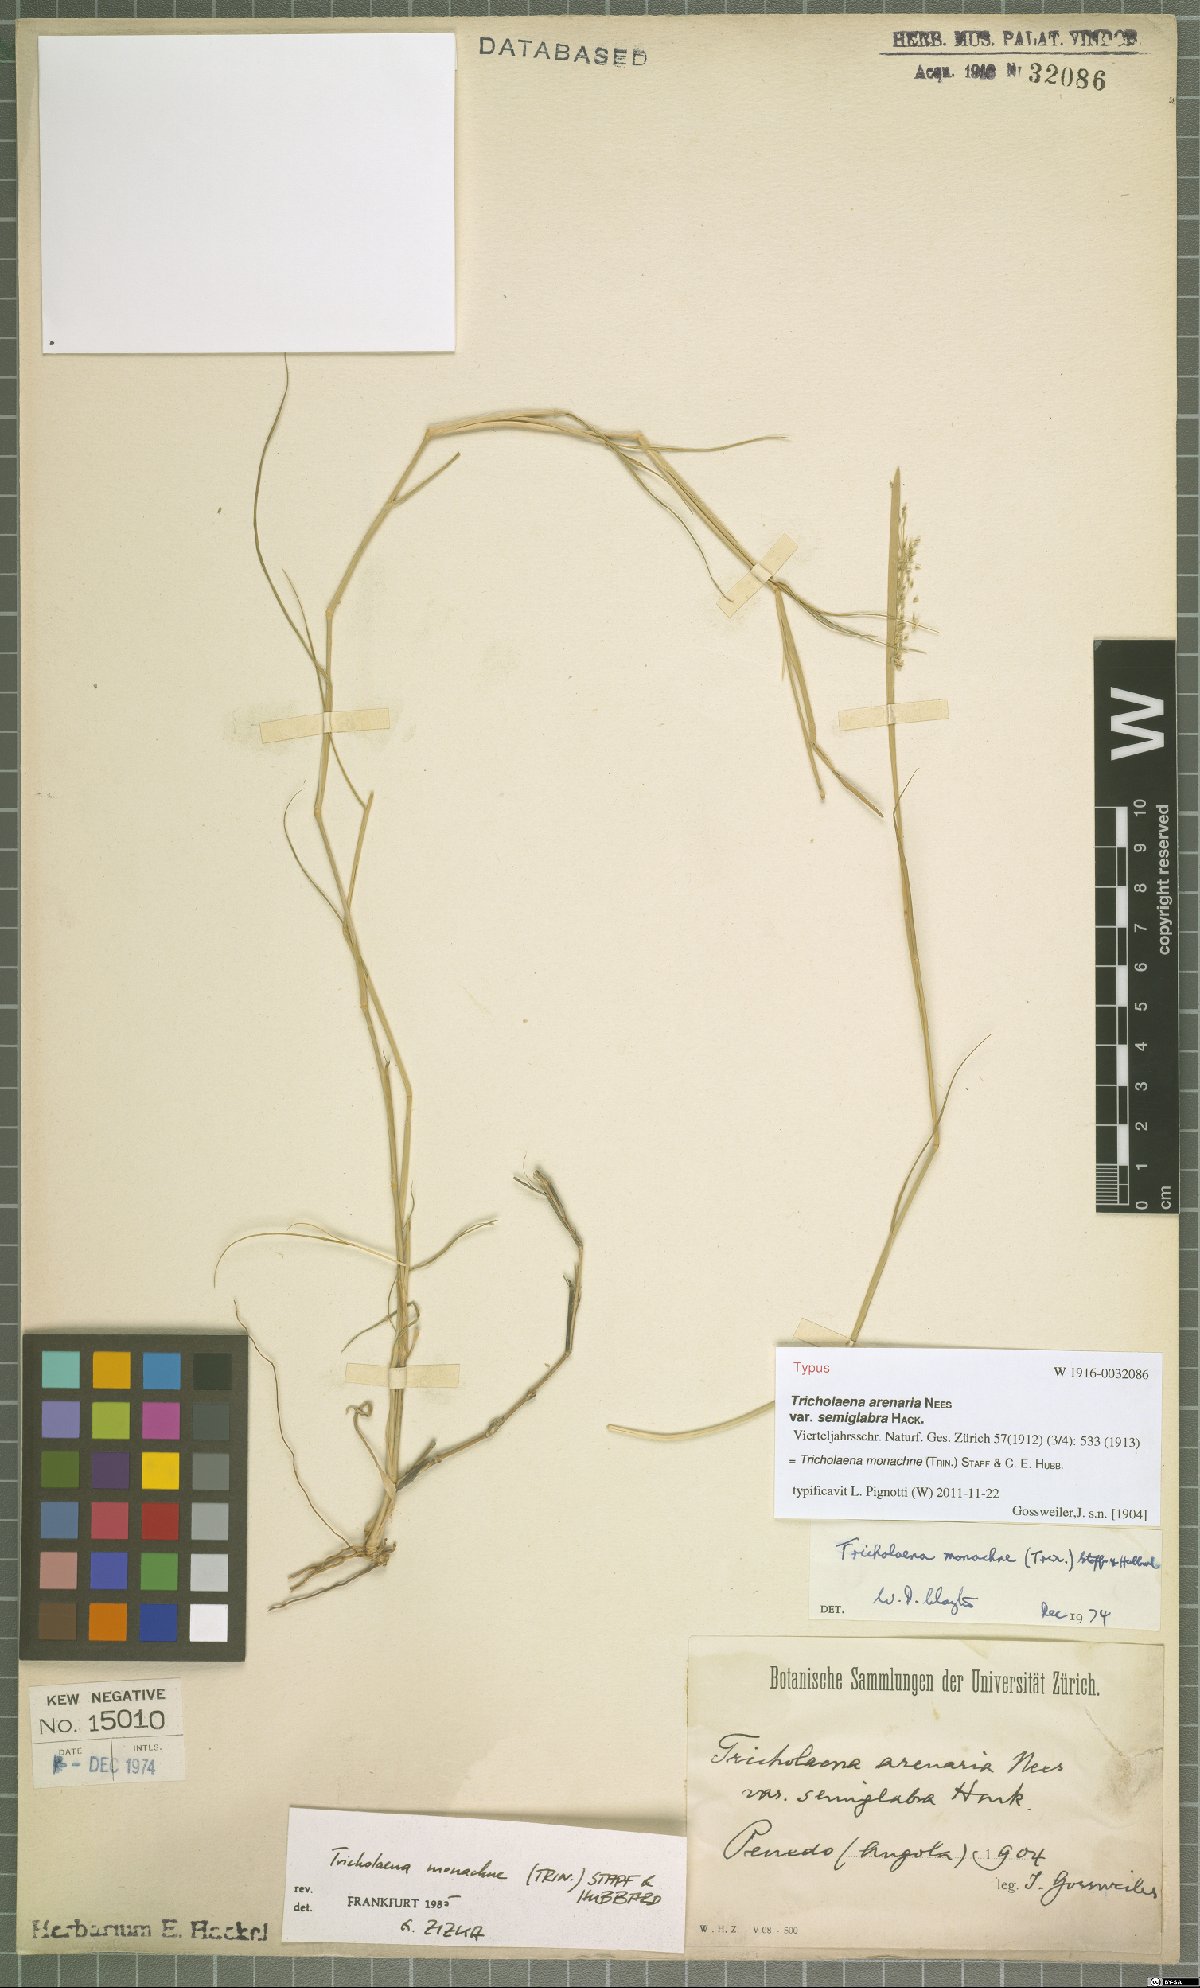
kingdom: Plantae
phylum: Tracheophyta
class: Liliopsida
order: Poales
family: Poaceae
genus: Tricholaena
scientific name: Tricholaena monachne
